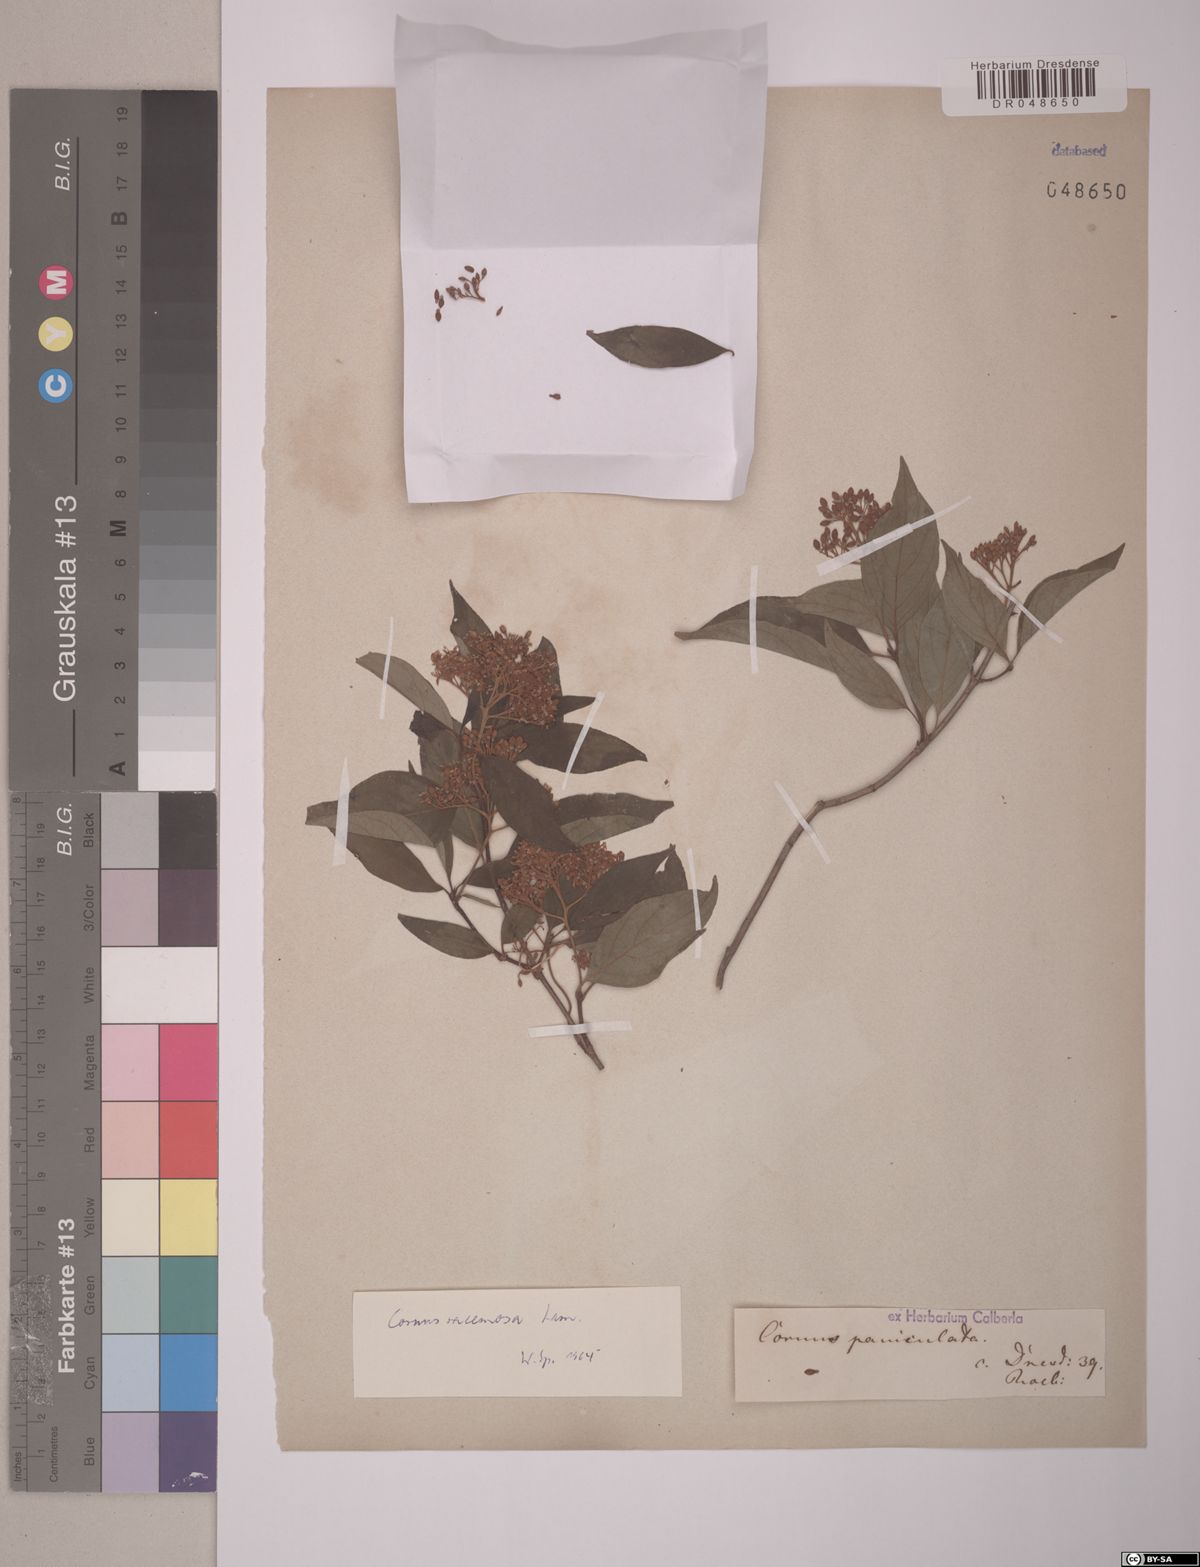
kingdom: Plantae
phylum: Tracheophyta
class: Magnoliopsida
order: Cornales
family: Cornaceae
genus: Cornus
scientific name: Cornus racemosa
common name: Panicled dogwood
